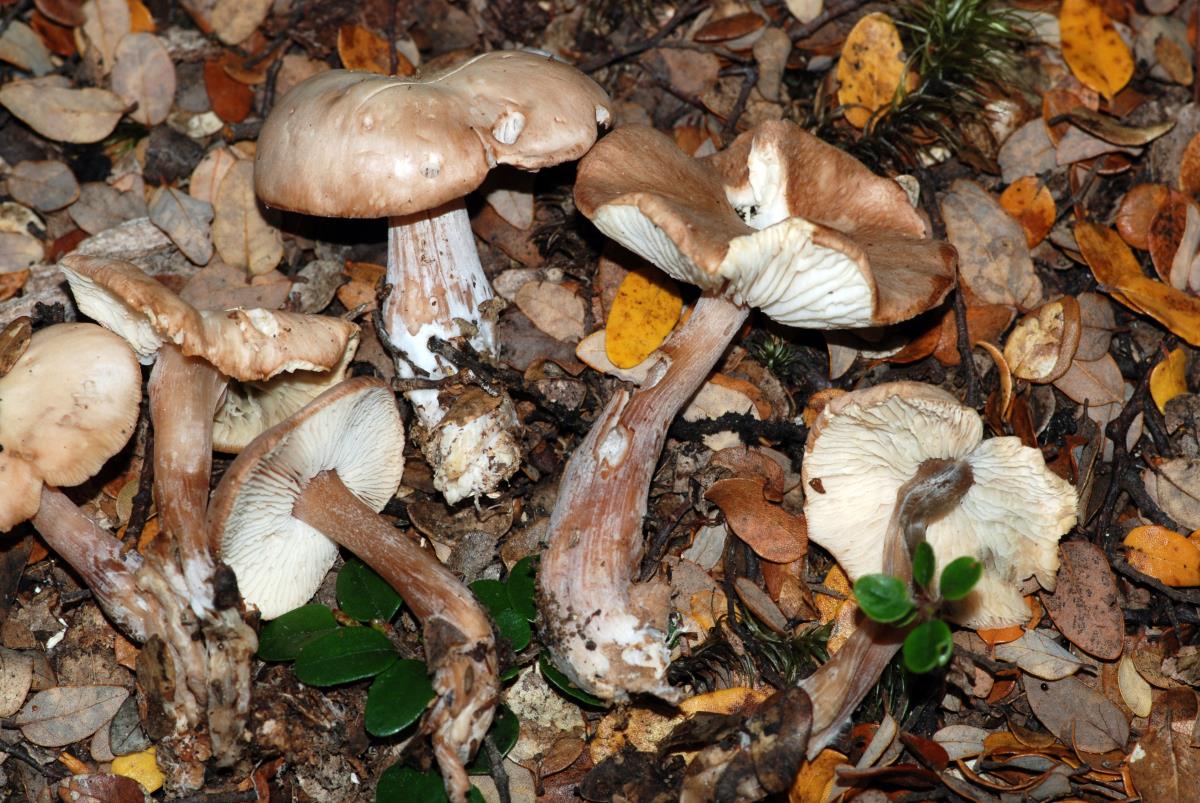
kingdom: Fungi
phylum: Basidiomycota
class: Agaricomycetes
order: Agaricales
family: Omphalotaceae
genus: Rhodocollybia
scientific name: Rhodocollybia
